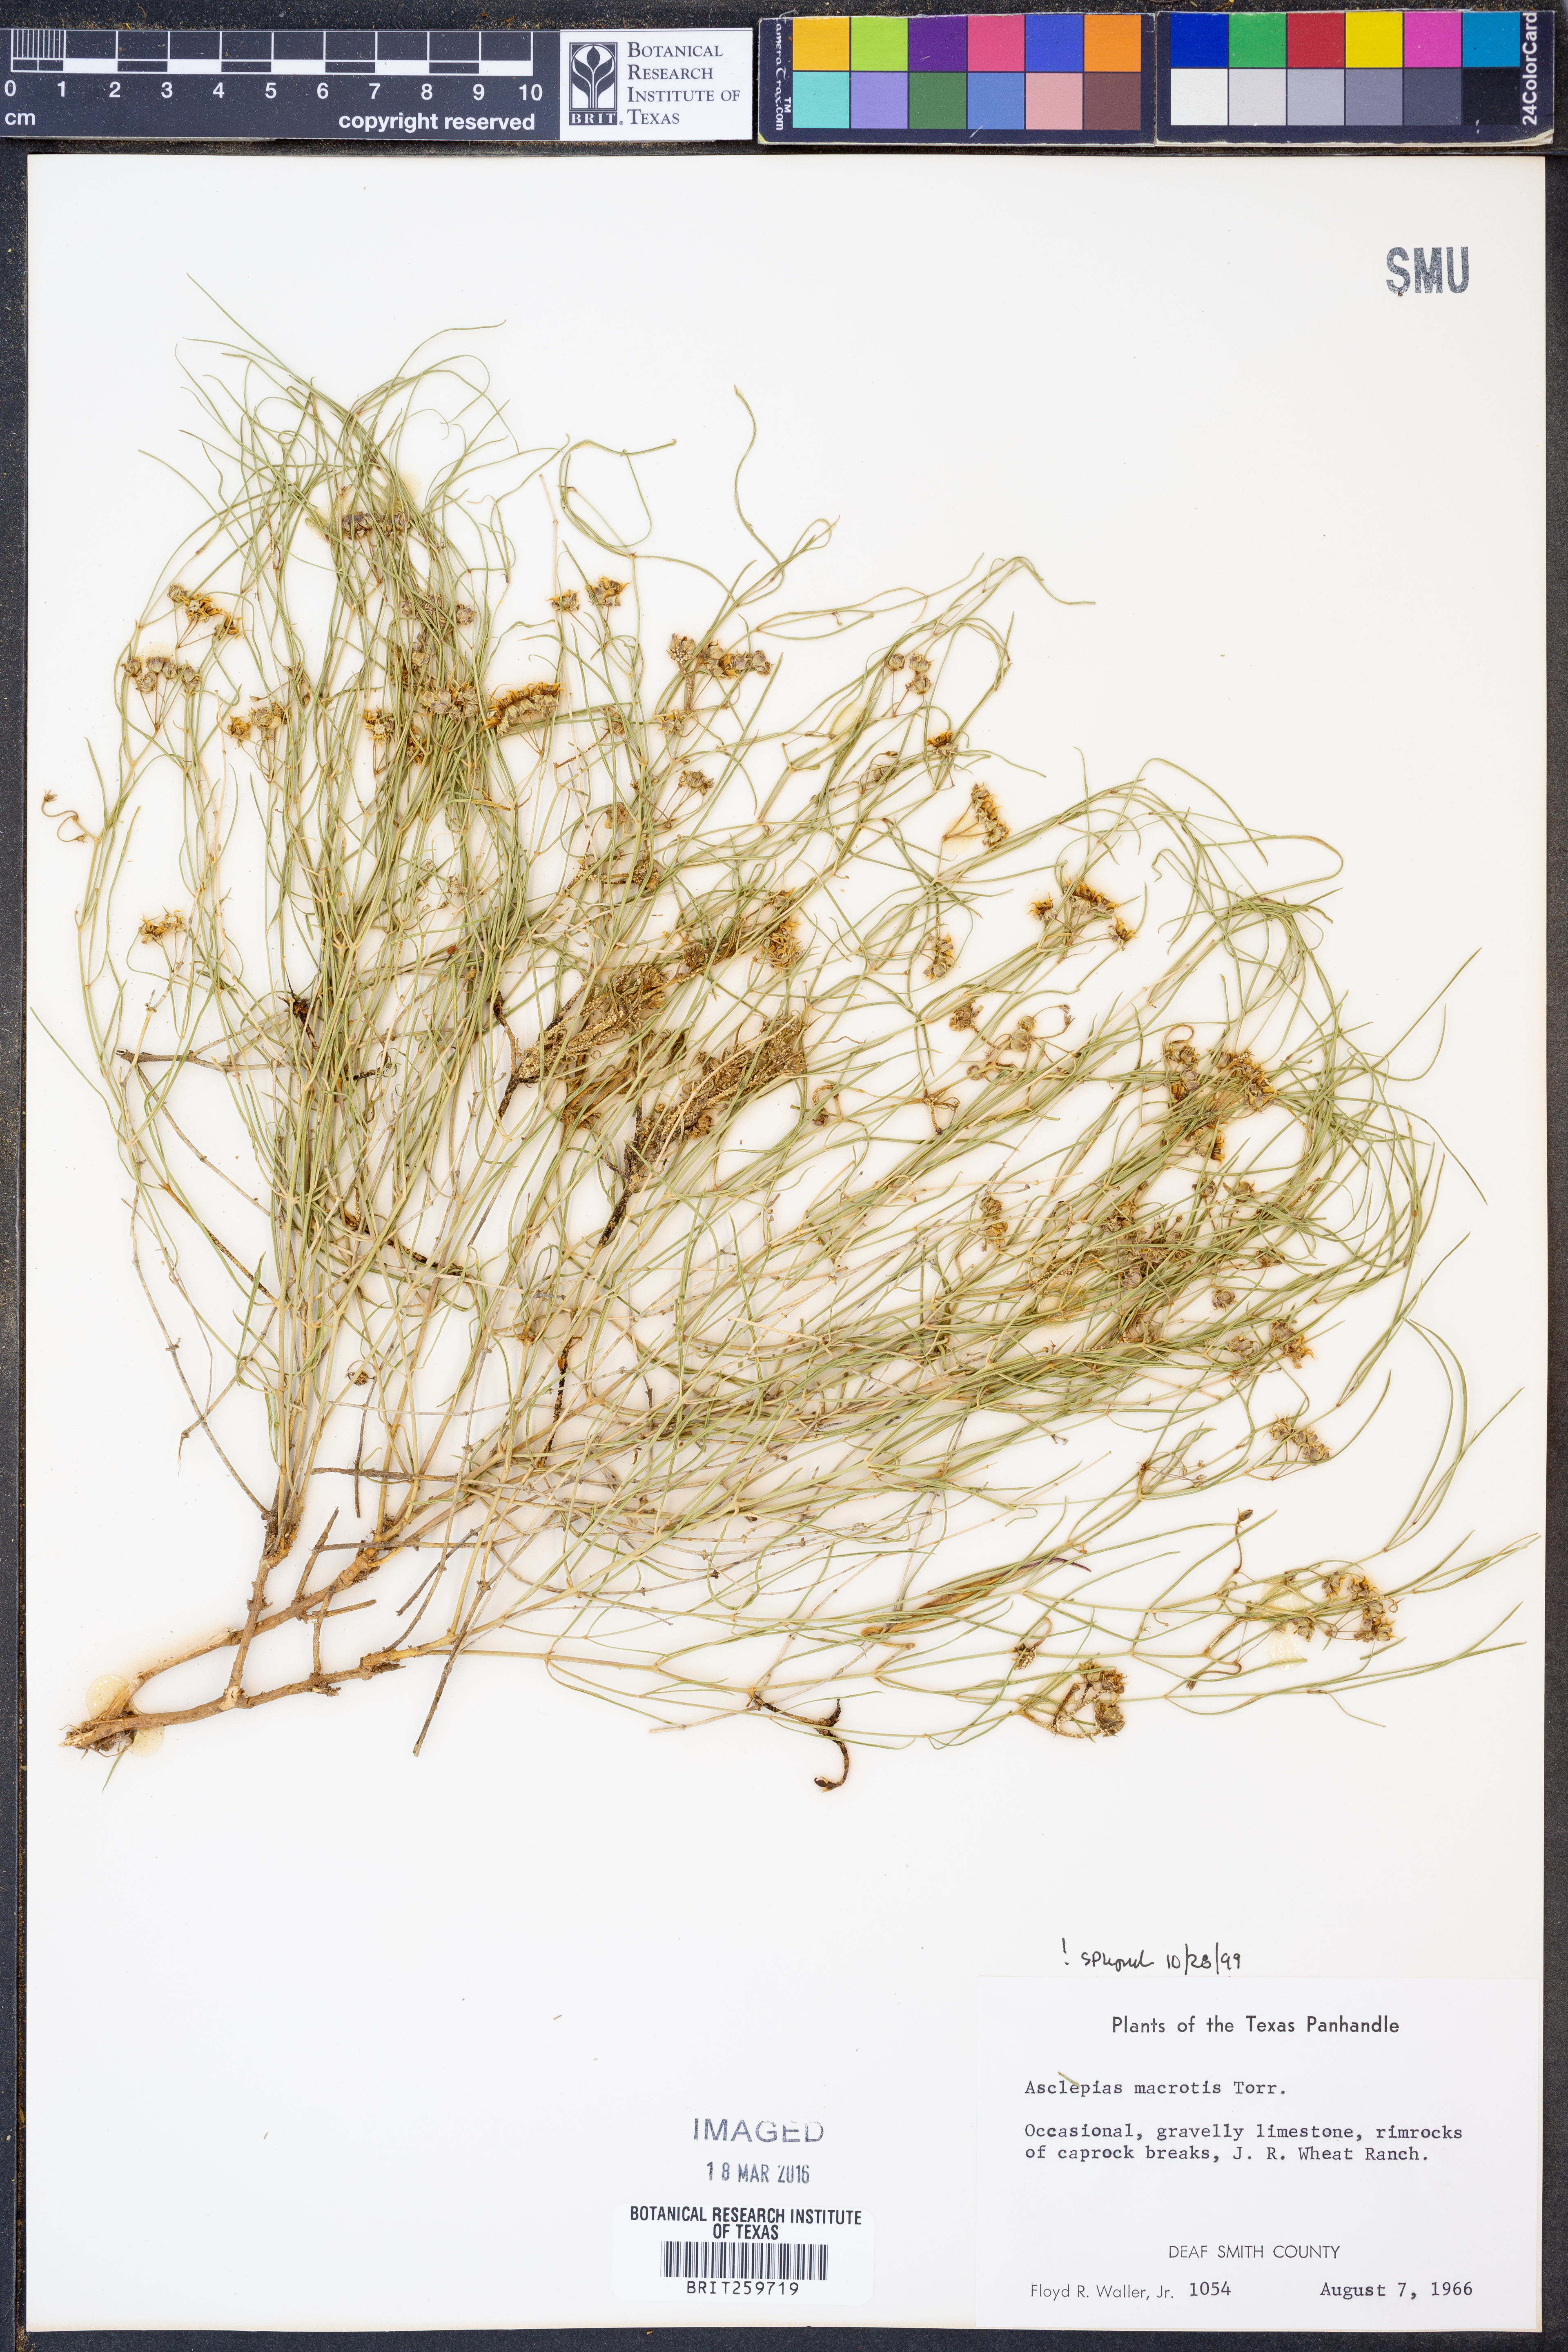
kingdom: Plantae
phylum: Tracheophyta
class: Magnoliopsida
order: Gentianales
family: Apocynaceae
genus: Asclepias
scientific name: Asclepias macrotis
